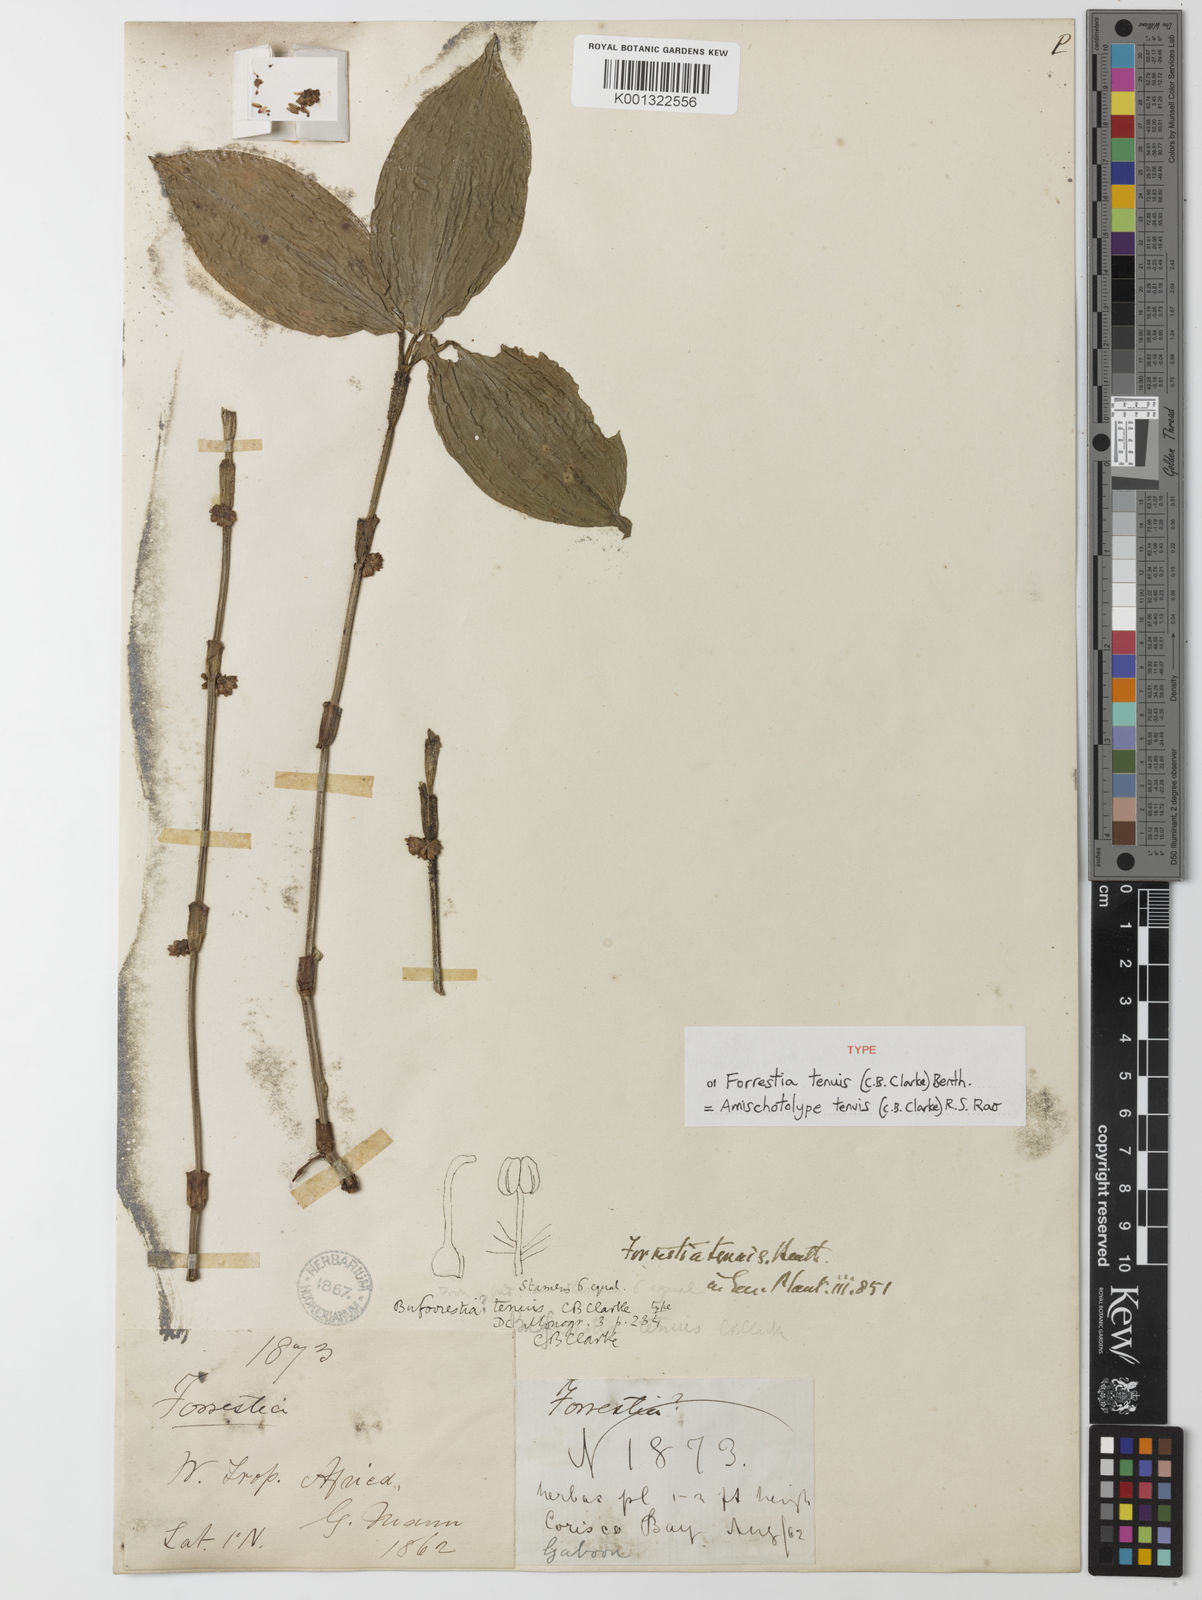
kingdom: Plantae
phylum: Tracheophyta
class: Liliopsida
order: Commelinales
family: Commelinaceae
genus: Amischotolype
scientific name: Amischotolype tenuis
